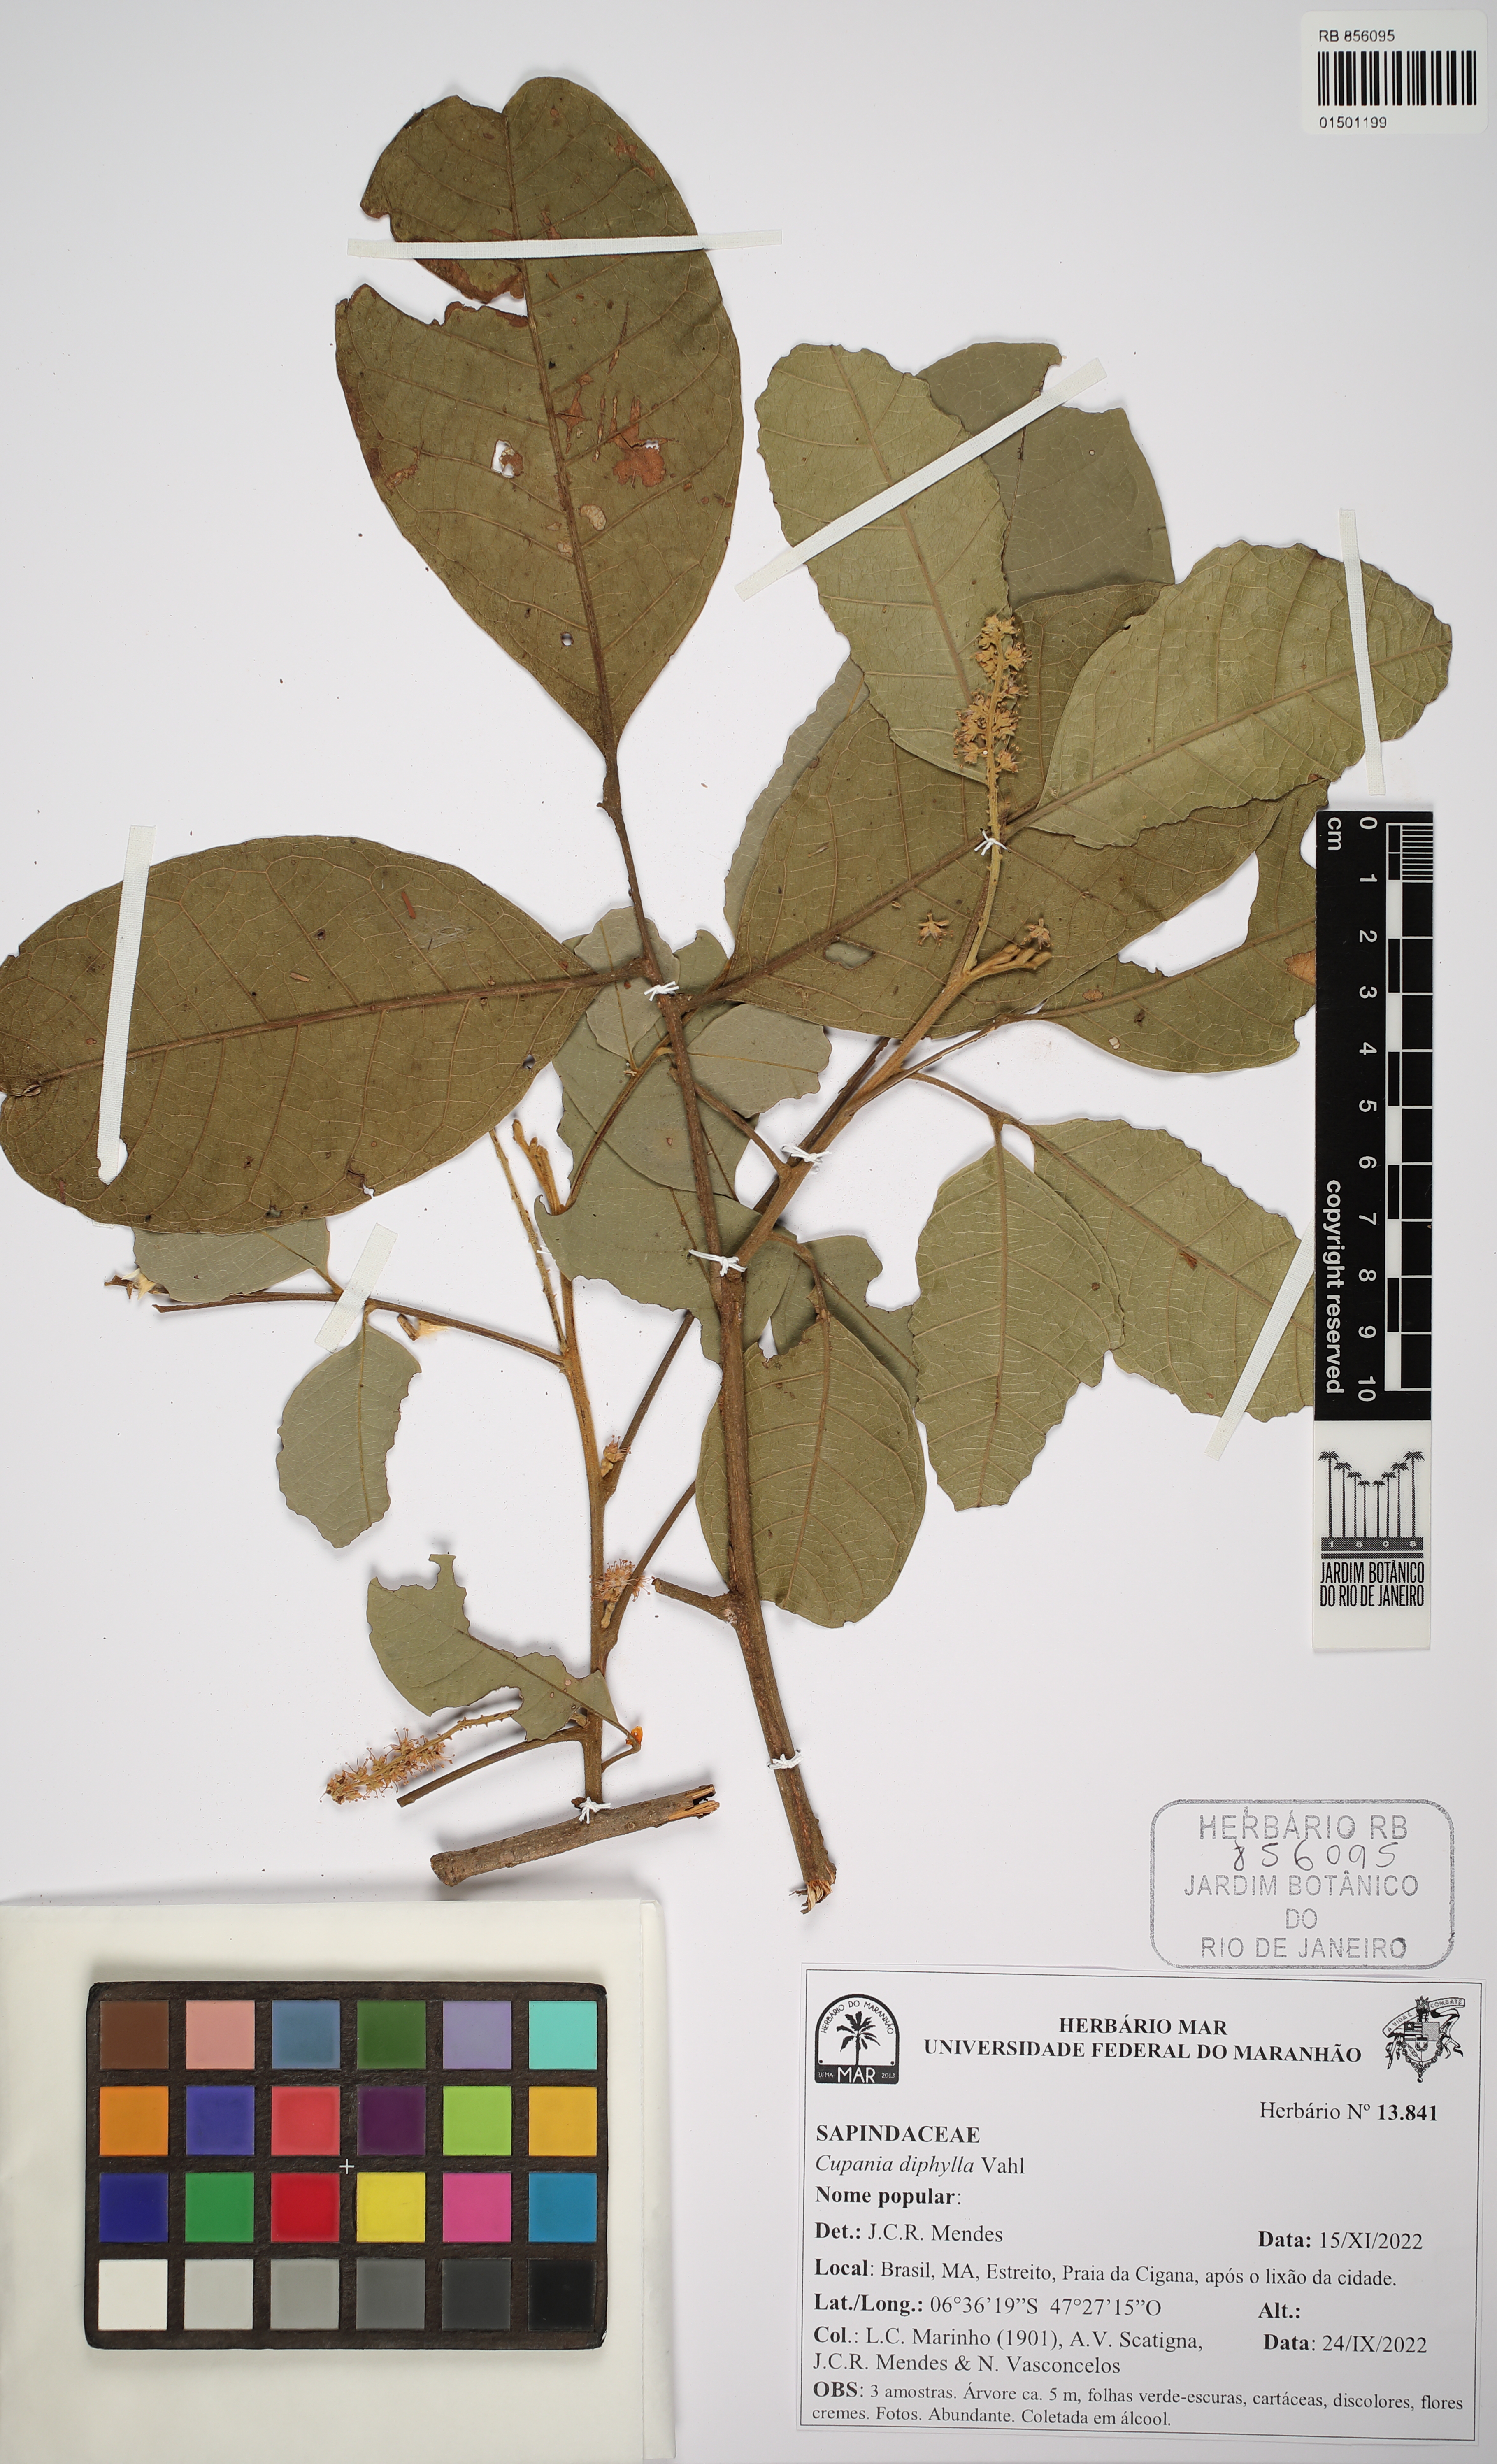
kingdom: Plantae
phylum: Tracheophyta
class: Magnoliopsida
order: Sapindales
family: Sapindaceae
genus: Cupania
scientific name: Cupania diphylla
